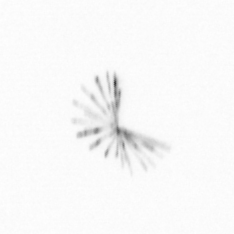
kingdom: Chromista
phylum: Ochrophyta
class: Bacillariophyceae
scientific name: Bacillariophyceae
